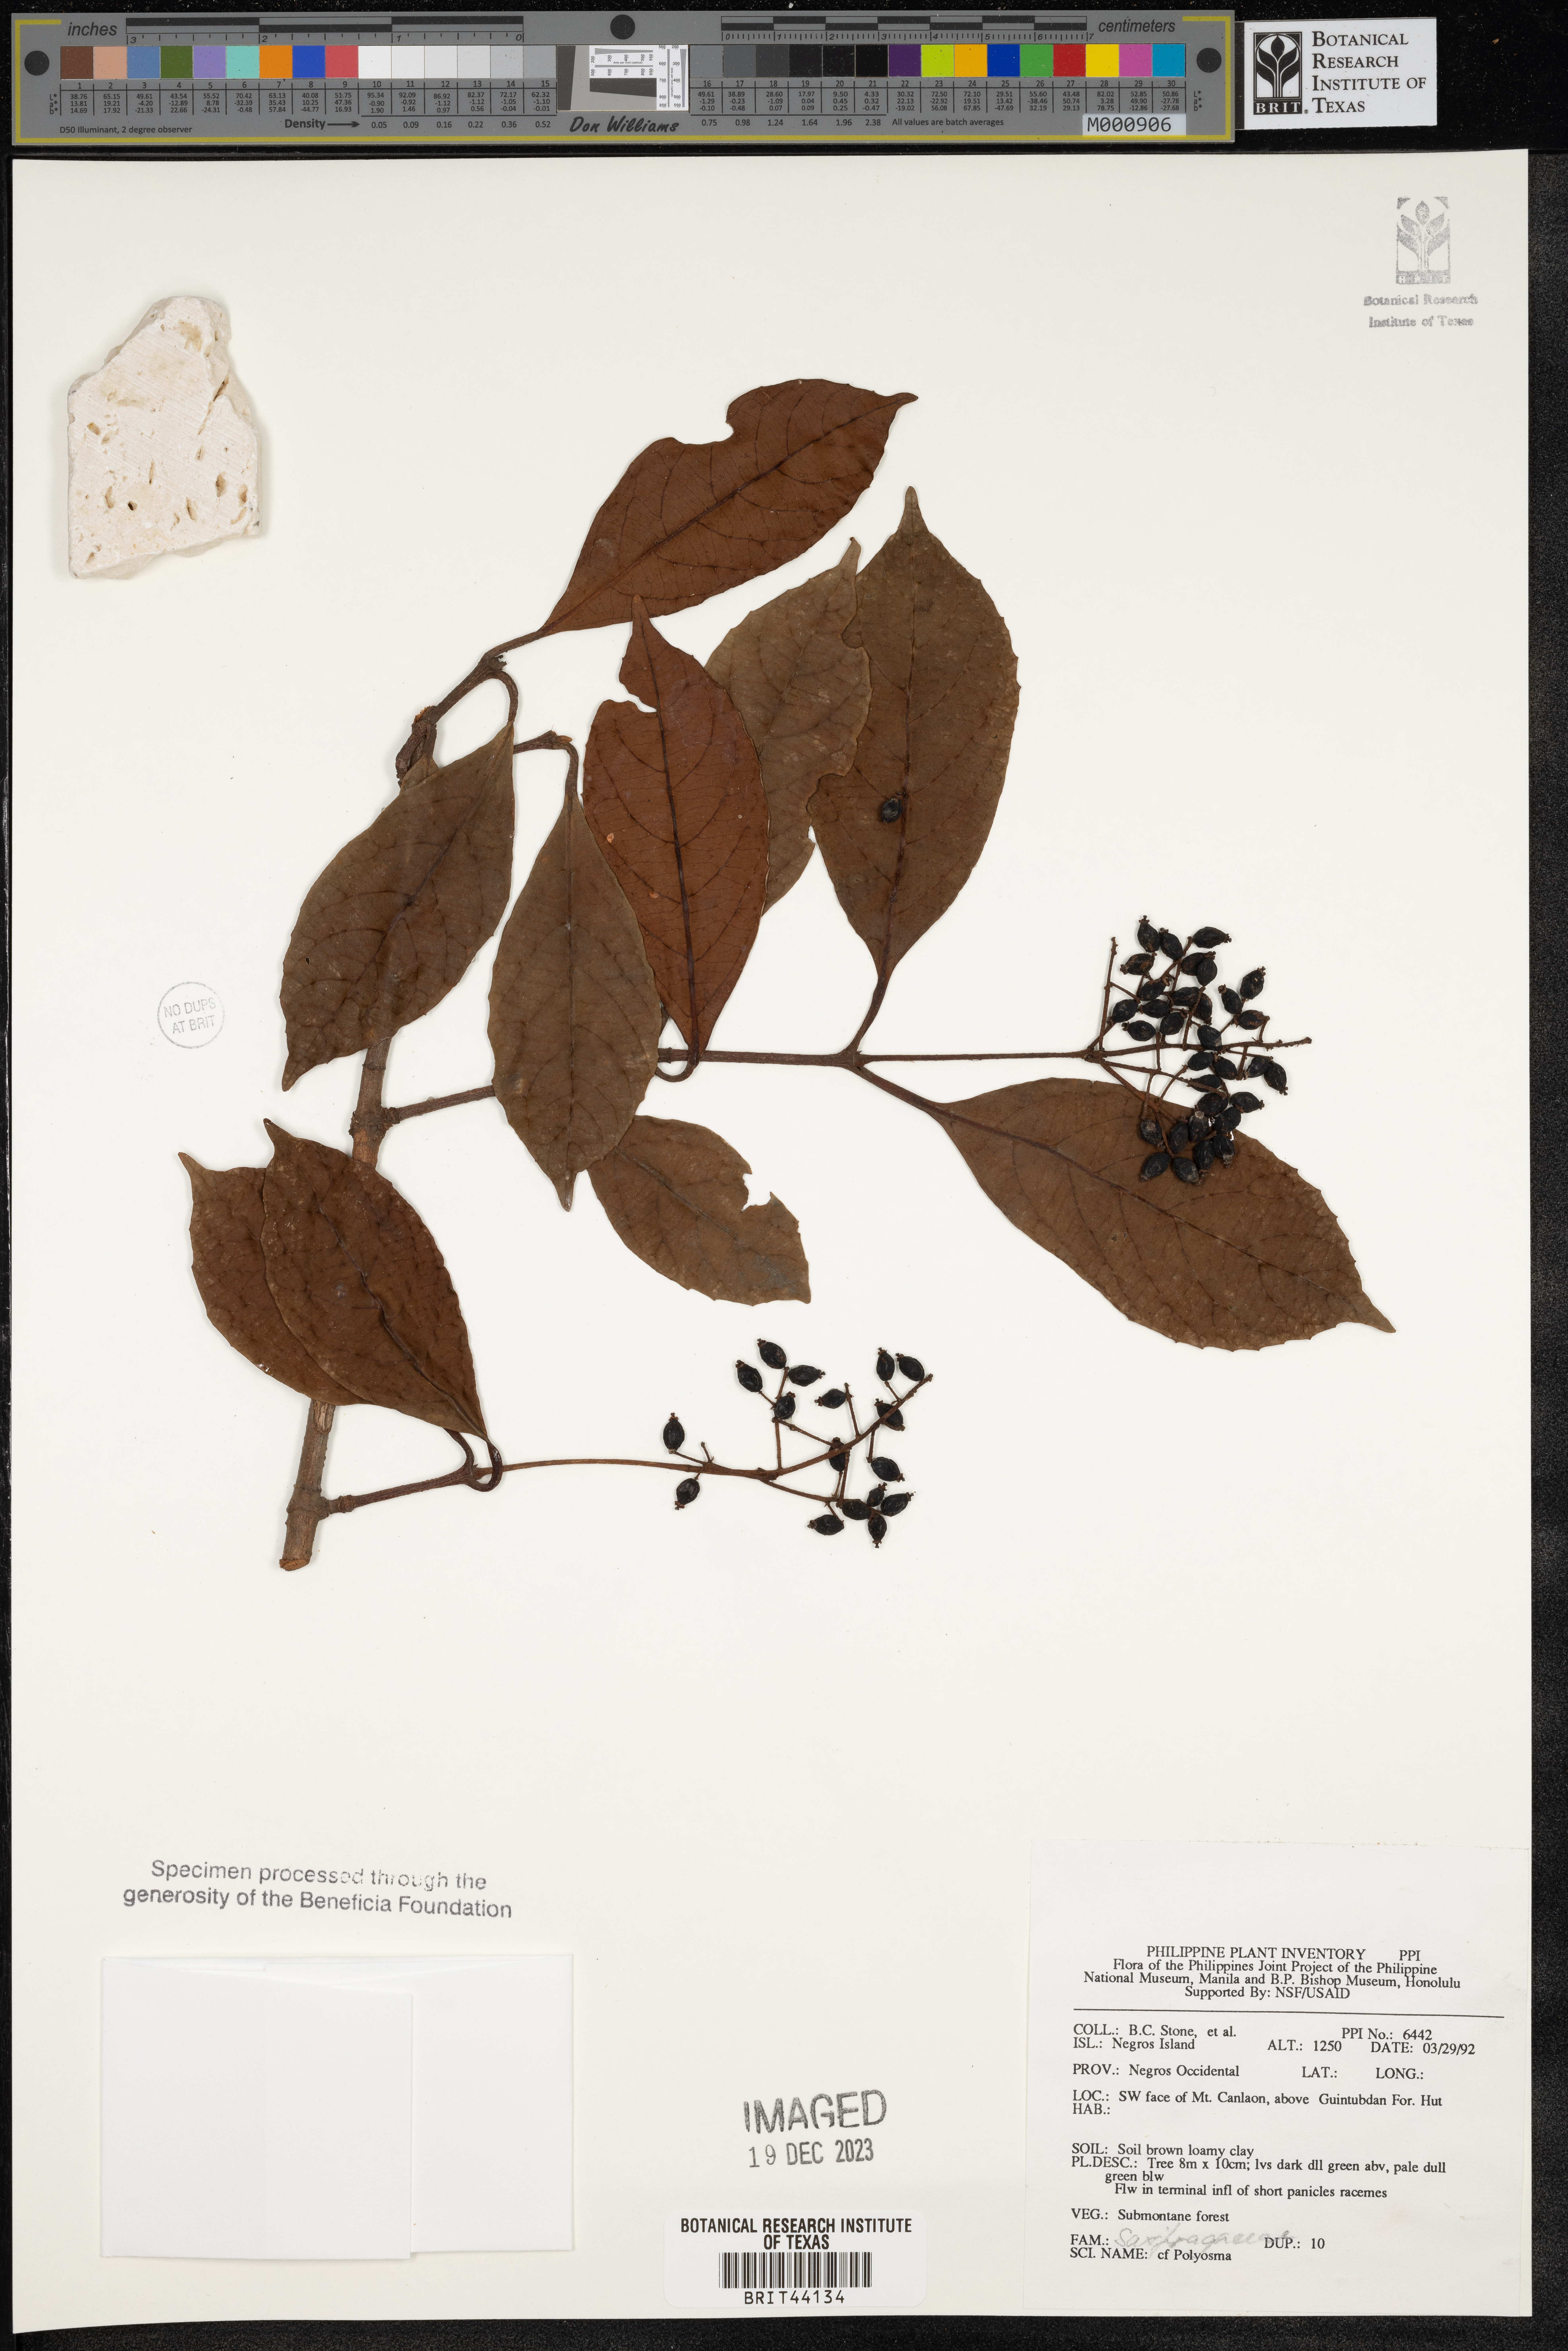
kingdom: Plantae
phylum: Tracheophyta
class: Magnoliopsida
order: Escalloniales
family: Escalloniaceae
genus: Polyosma
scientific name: Polyosma
